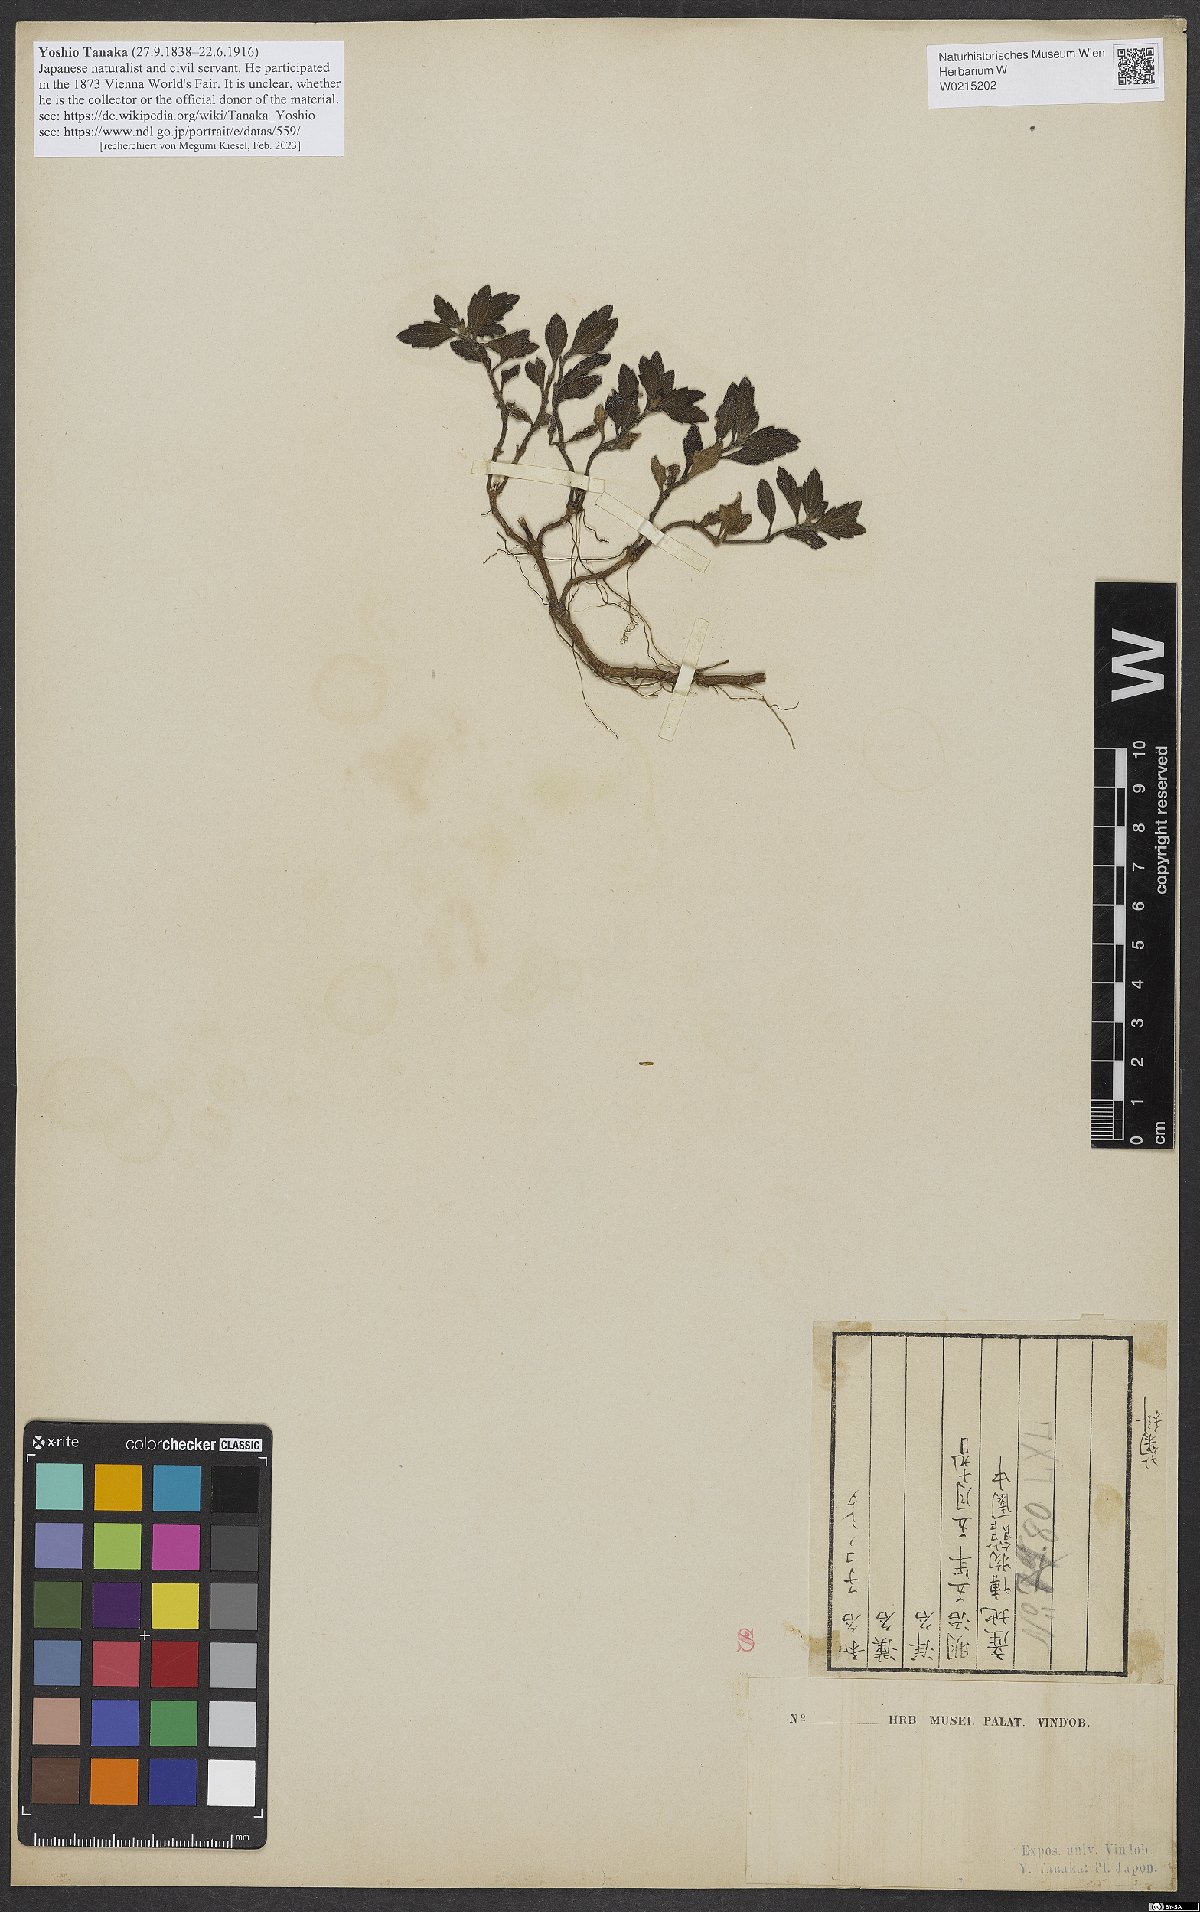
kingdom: Plantae
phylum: Tracheophyta
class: Magnoliopsida
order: Asterales
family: Asteraceae
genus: Melanthera
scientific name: Melanthera prostrata
